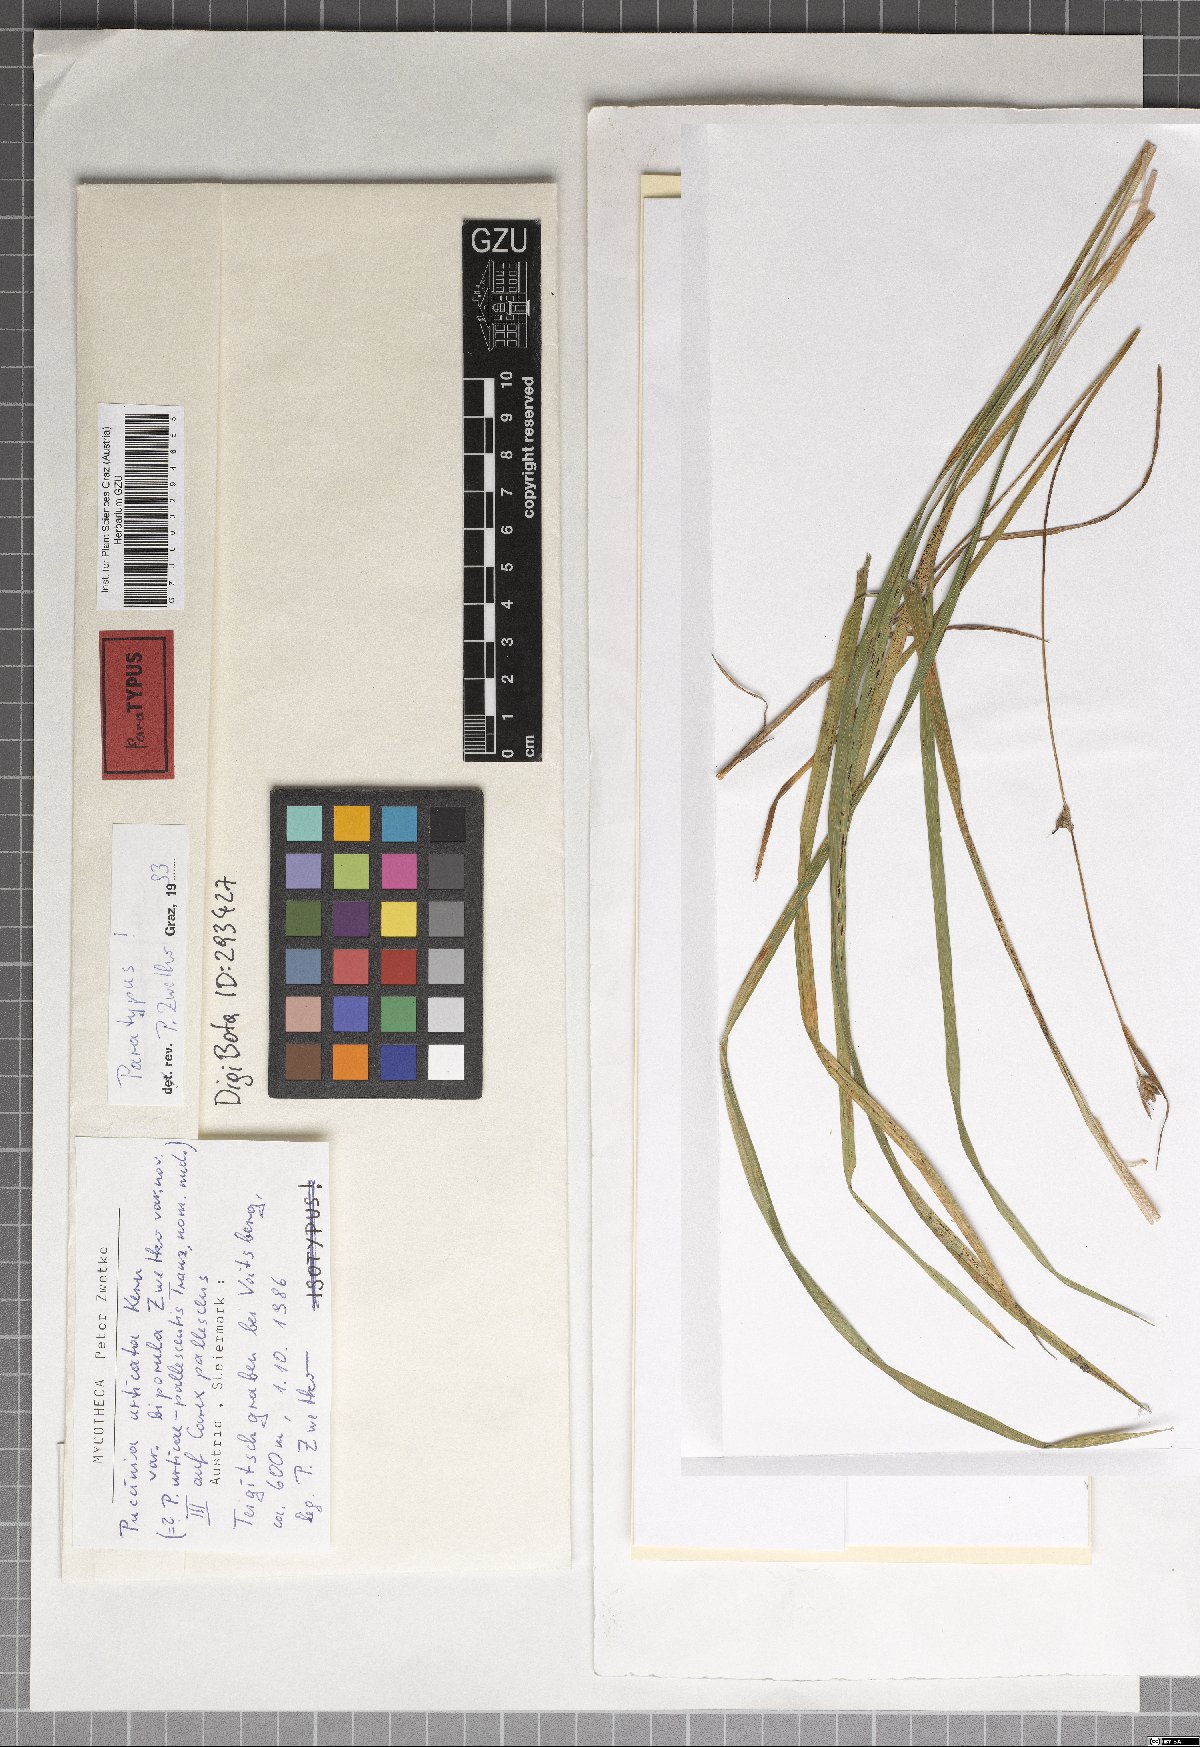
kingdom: Fungi
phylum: Basidiomycota
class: Pucciniomycetes
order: Pucciniales
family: Pucciniaceae
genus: Puccinia
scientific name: Puccinia biporospora
